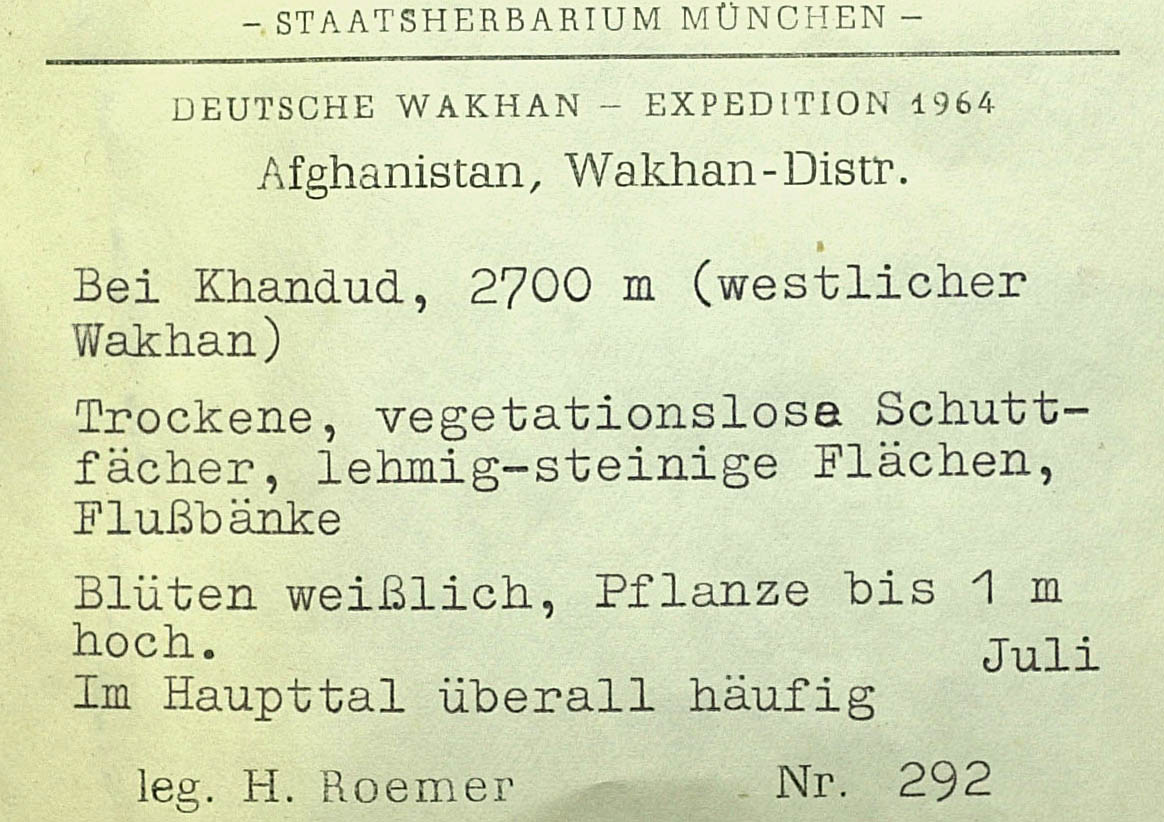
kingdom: Plantae
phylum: Tracheophyta
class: Magnoliopsida
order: Asterales
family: Asteraceae
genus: Echinops
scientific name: Echinops wakhanicus
